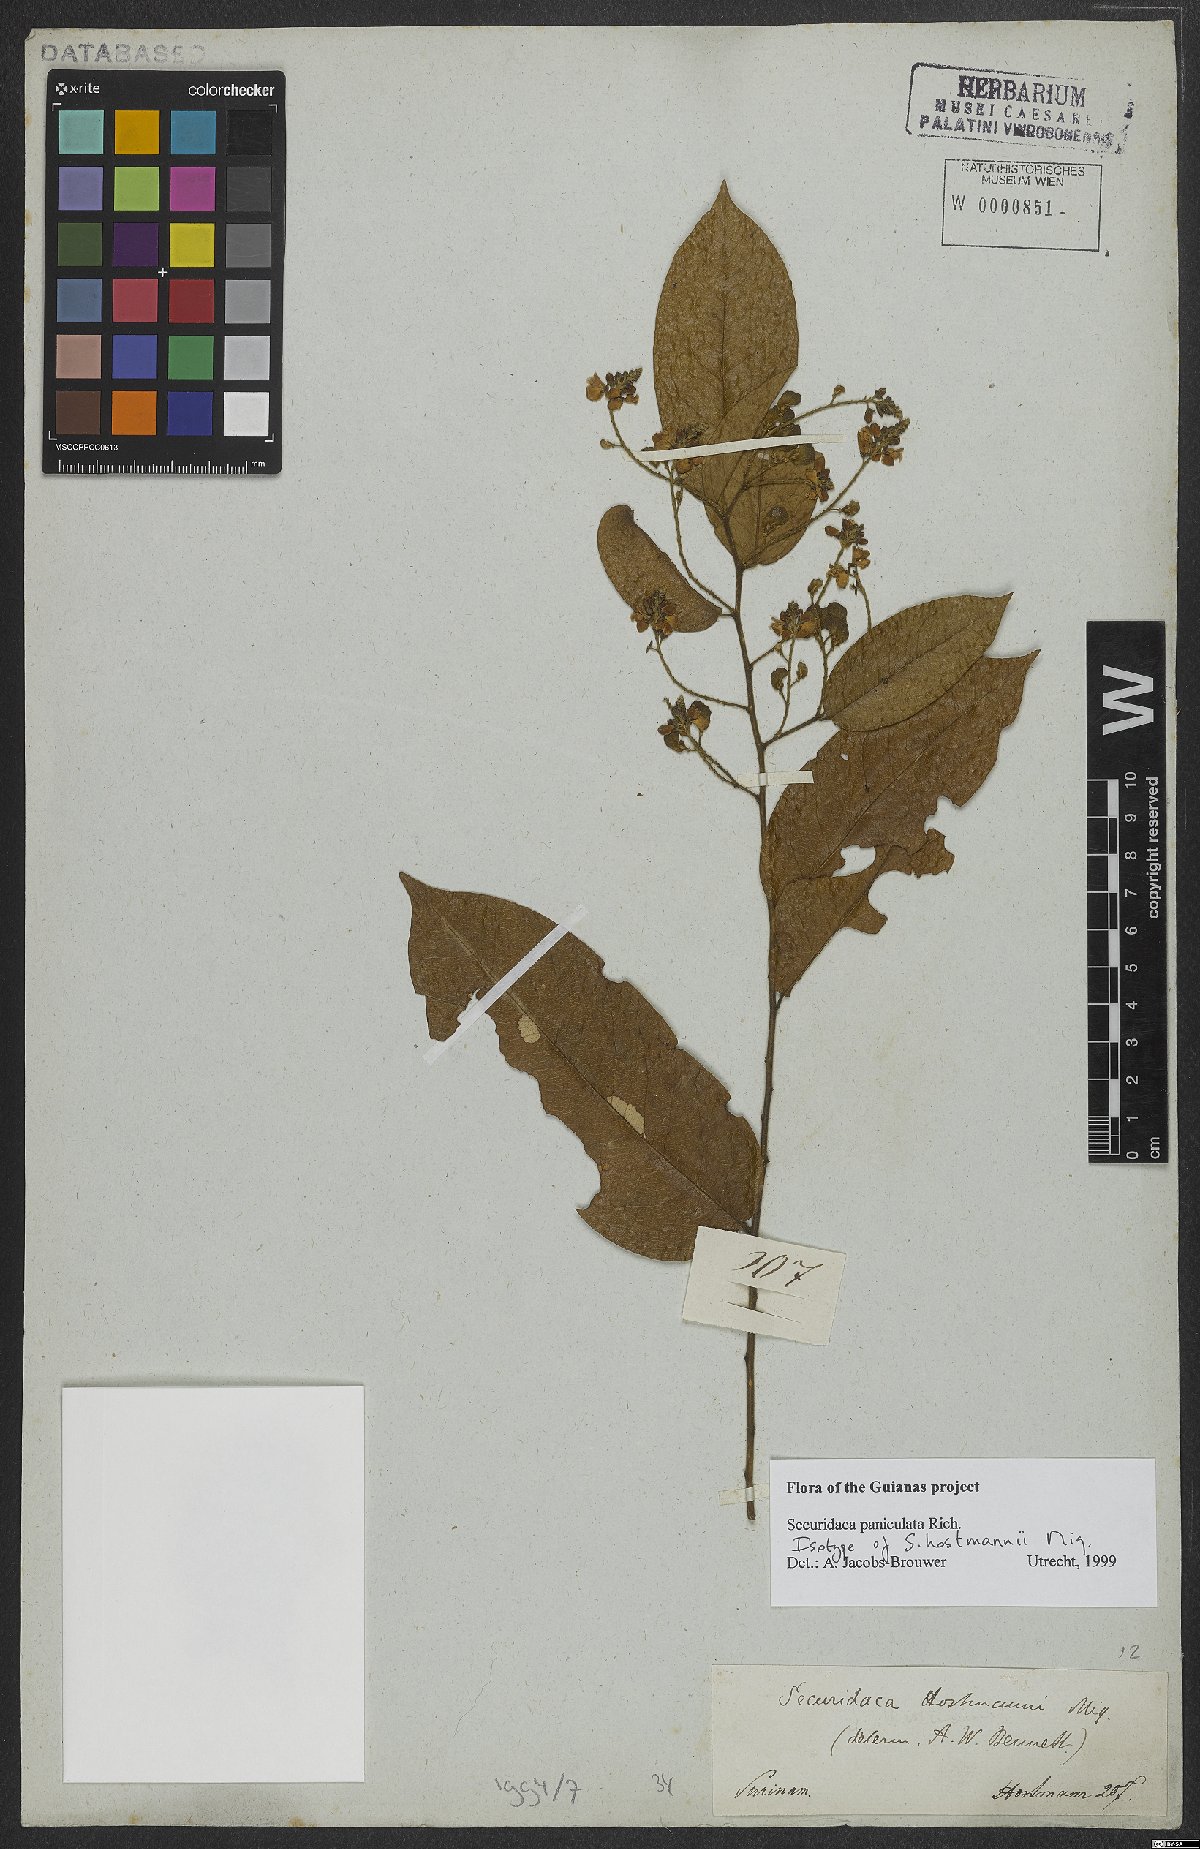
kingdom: Plantae
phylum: Tracheophyta
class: Magnoliopsida
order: Fabales
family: Polygalaceae
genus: Securidaca
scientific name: Securidaca paniculata
